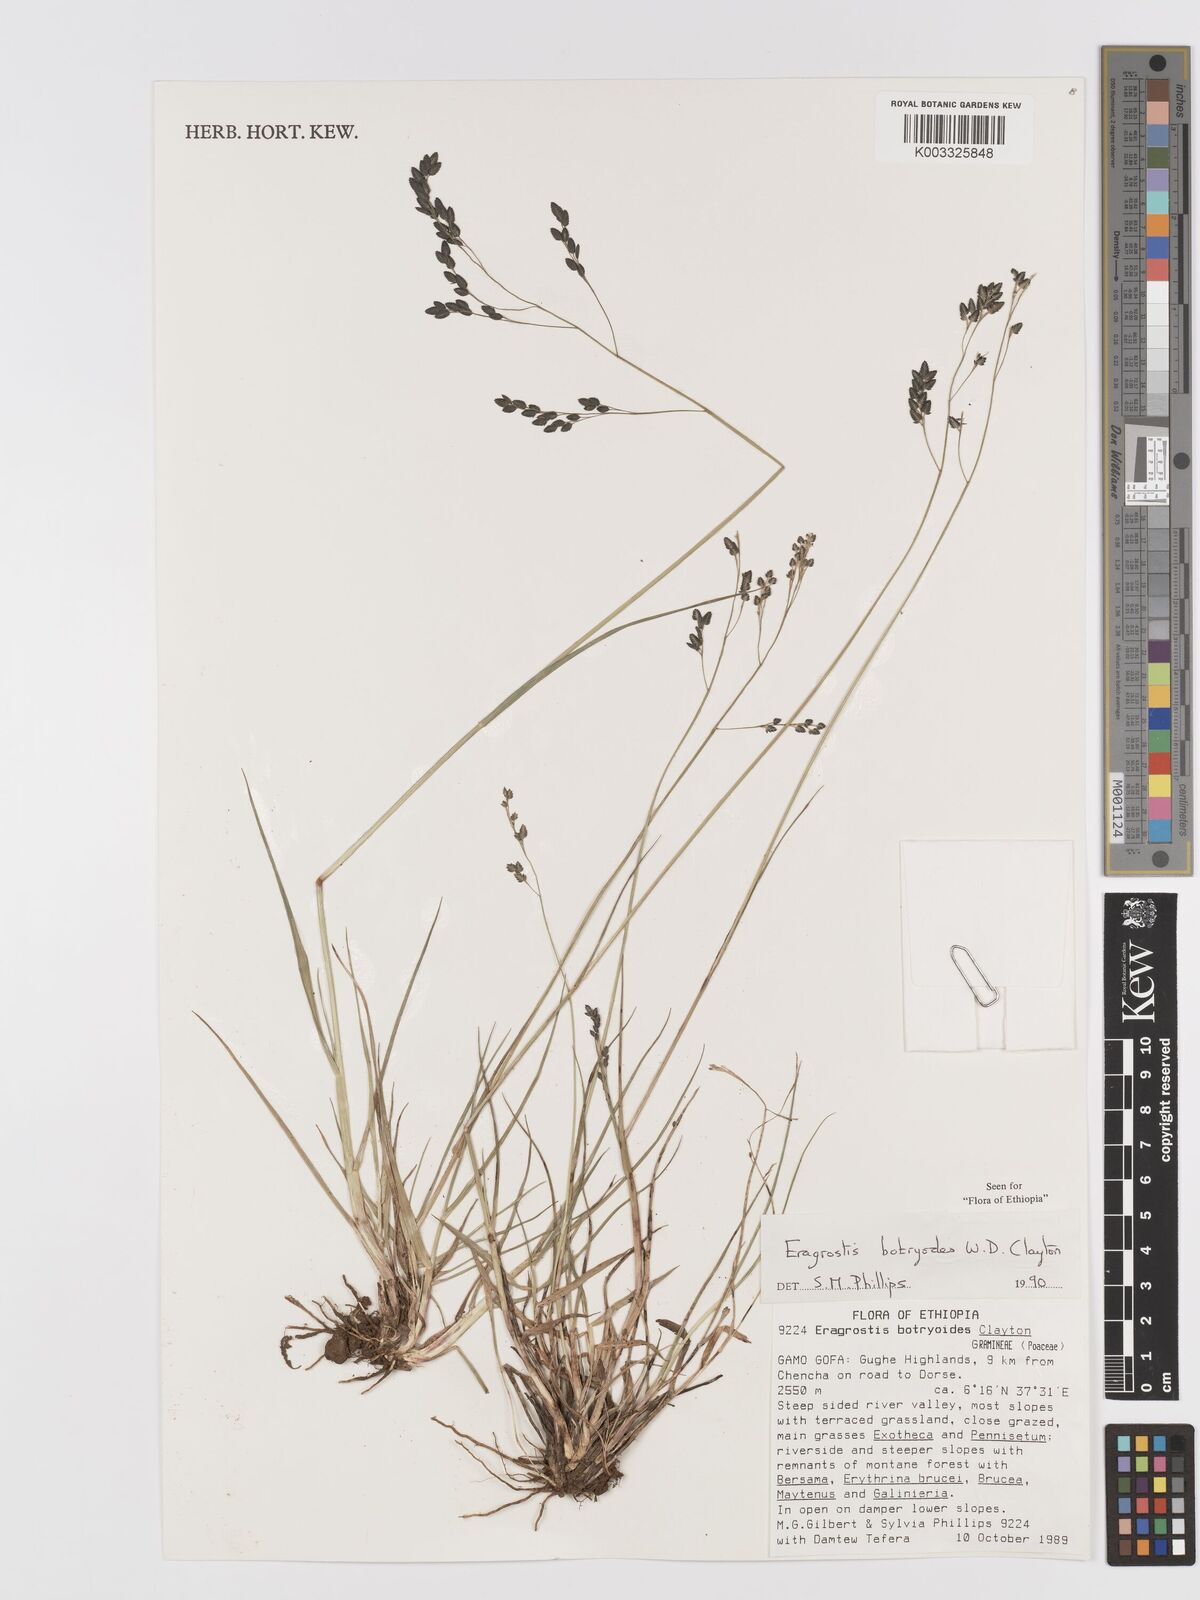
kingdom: Plantae
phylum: Tracheophyta
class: Liliopsida
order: Poales
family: Poaceae
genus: Eragrostis
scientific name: Eragrostis botryodes
